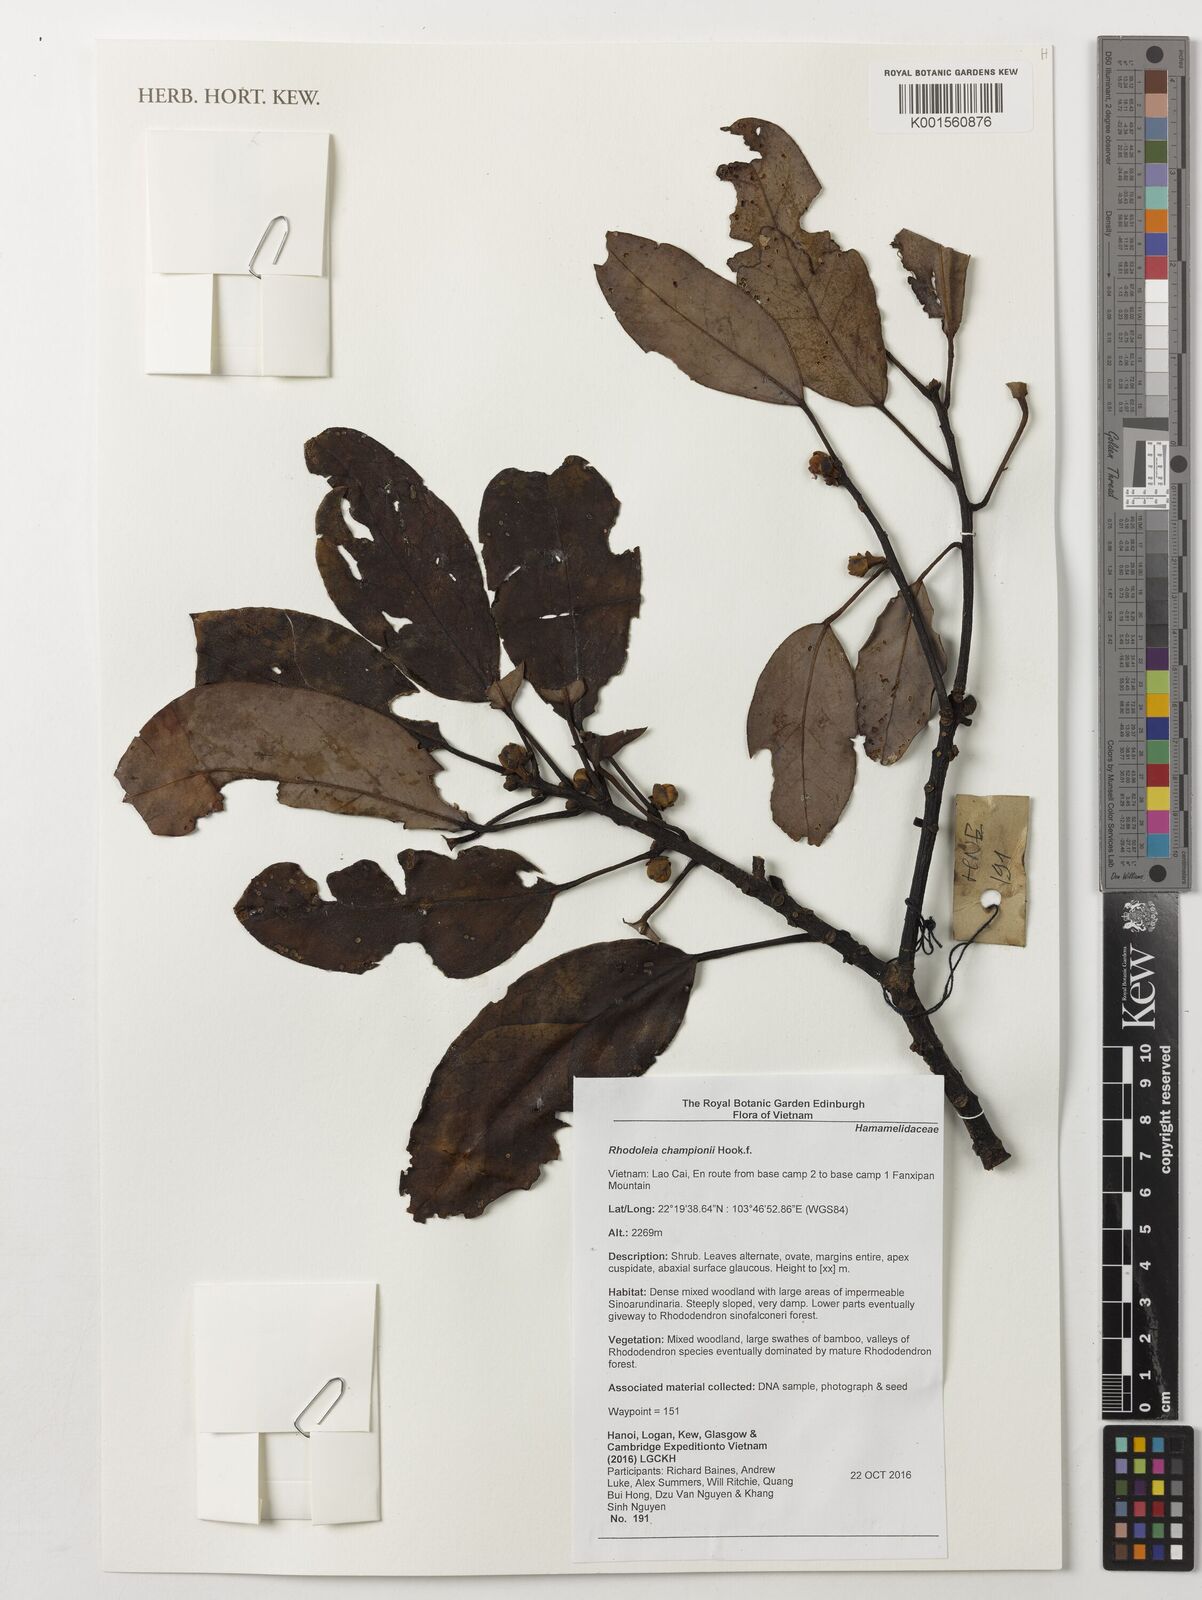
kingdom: Plantae
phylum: Tracheophyta
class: Magnoliopsida
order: Saxifragales
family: Hamamelidaceae
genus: Rhodoleia
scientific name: Rhodoleia championii
